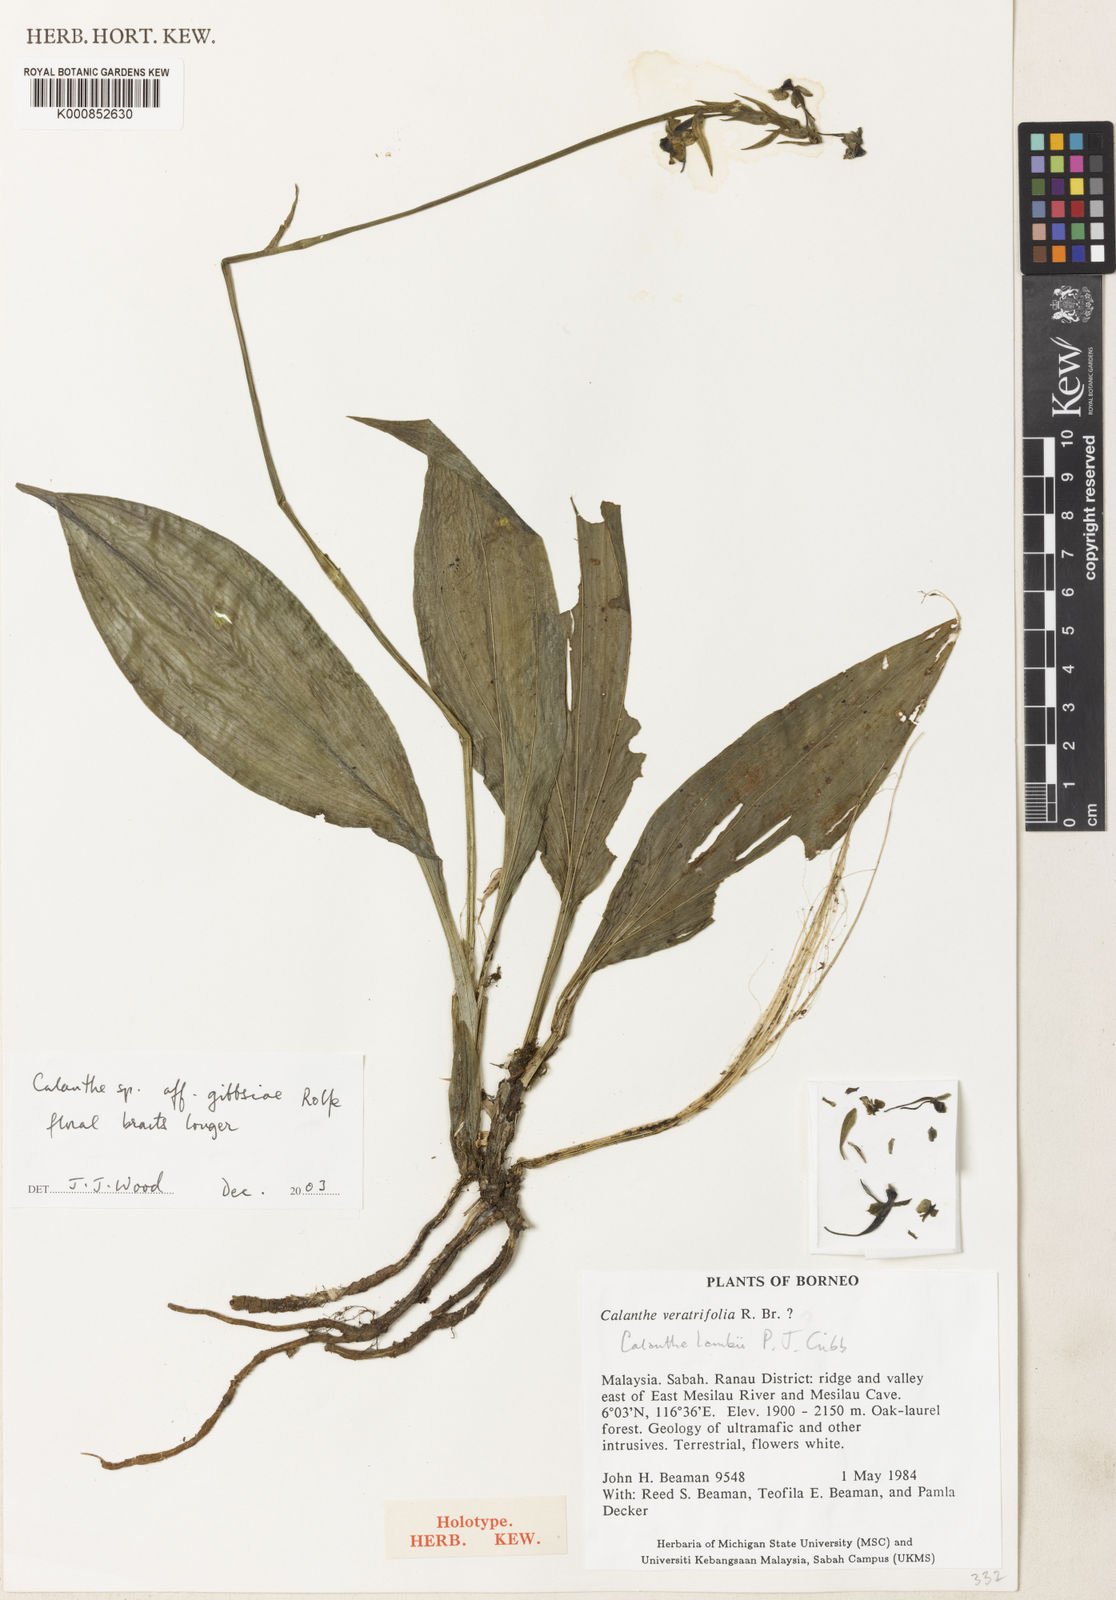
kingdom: Plantae
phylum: Tracheophyta
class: Liliopsida
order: Asparagales
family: Orchidaceae
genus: Calanthe
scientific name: Calanthe lambii
